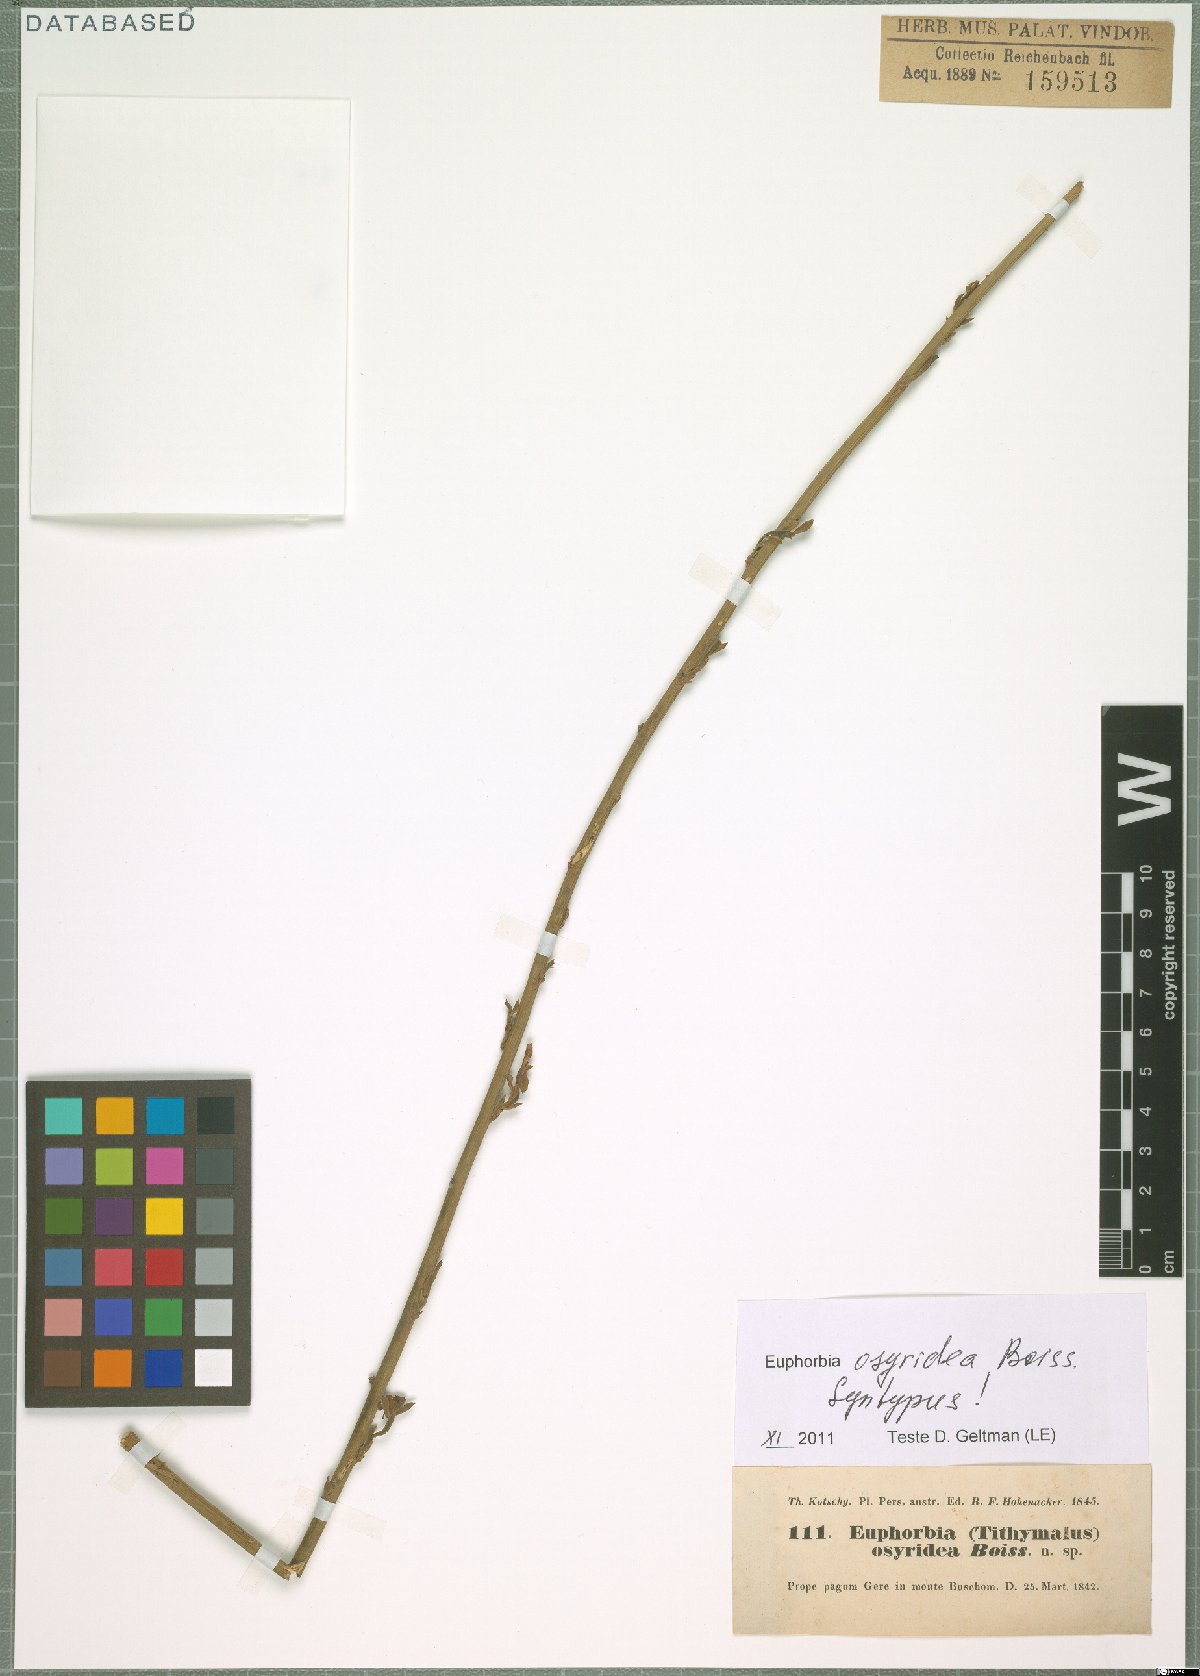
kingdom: Plantae
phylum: Tracheophyta
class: Magnoliopsida
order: Malpighiales
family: Euphorbiaceae
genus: Euphorbia
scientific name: Euphorbia osyridea
